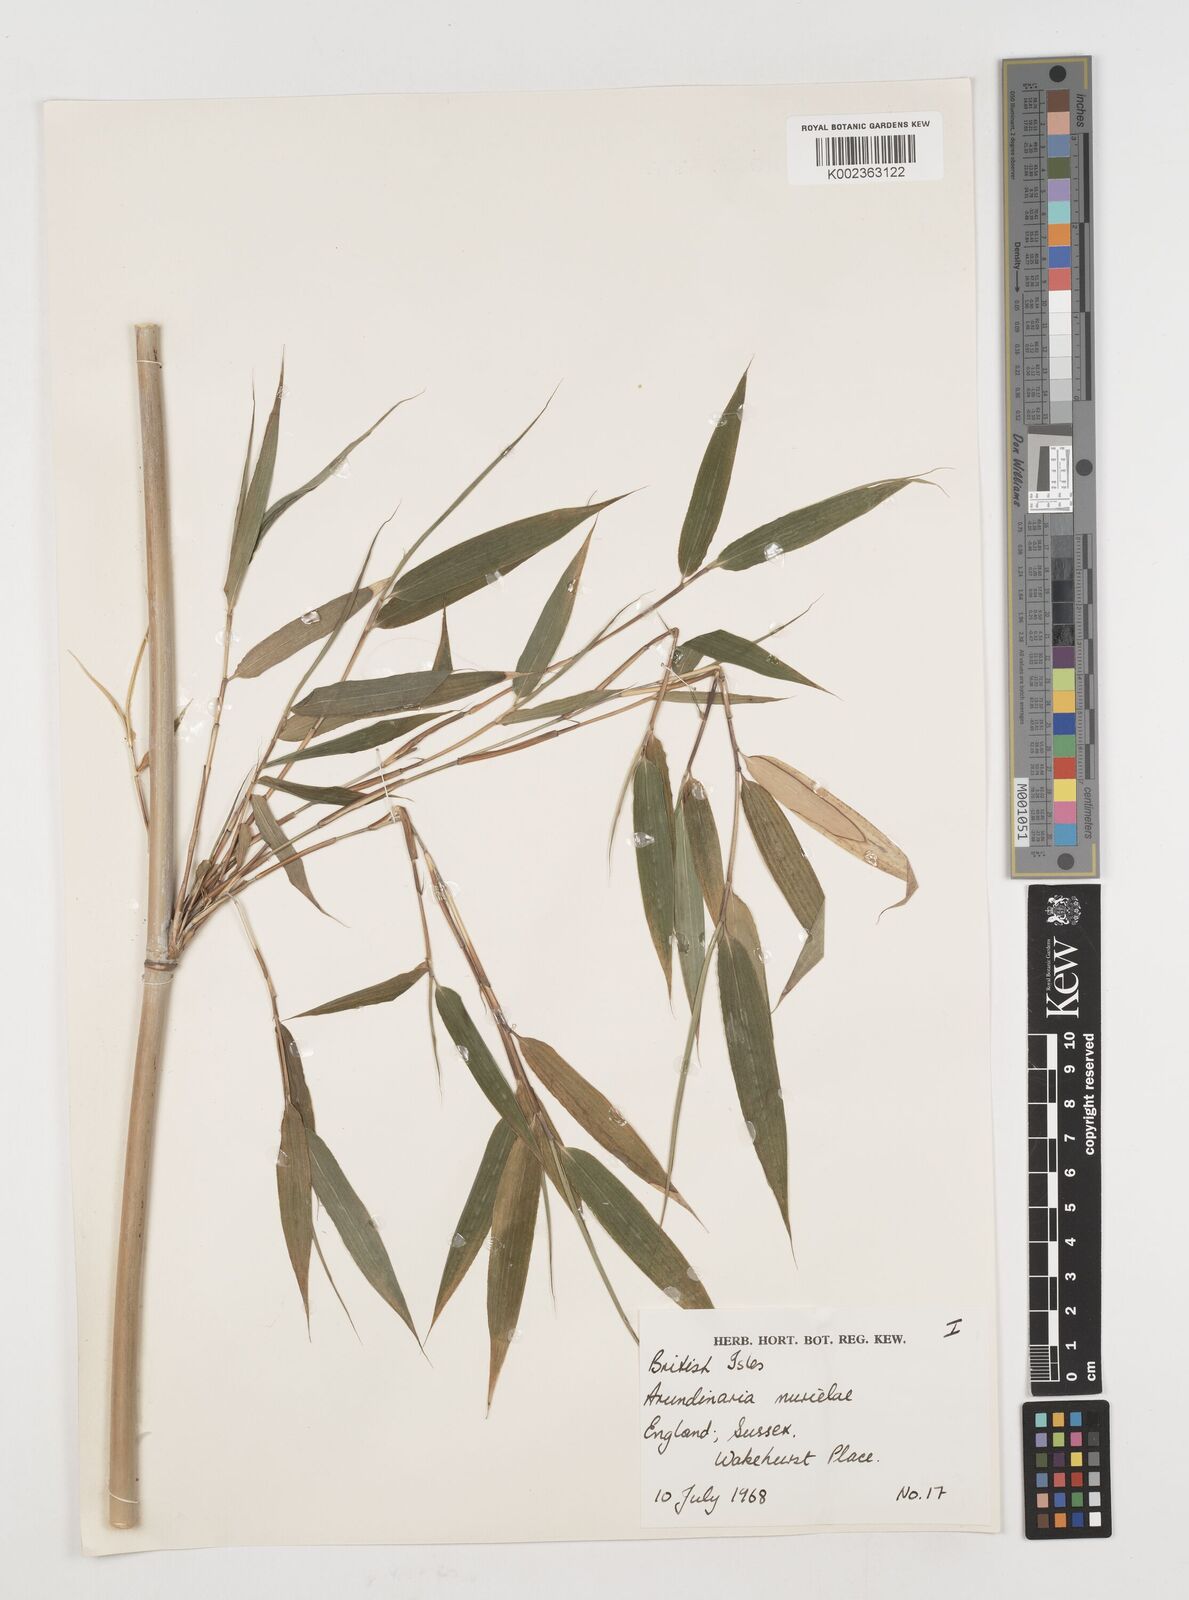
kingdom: Plantae
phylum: Tracheophyta
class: Liliopsida
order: Poales
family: Poaceae
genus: Fargesia
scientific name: Fargesia murielae
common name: Umbrella bamboo
